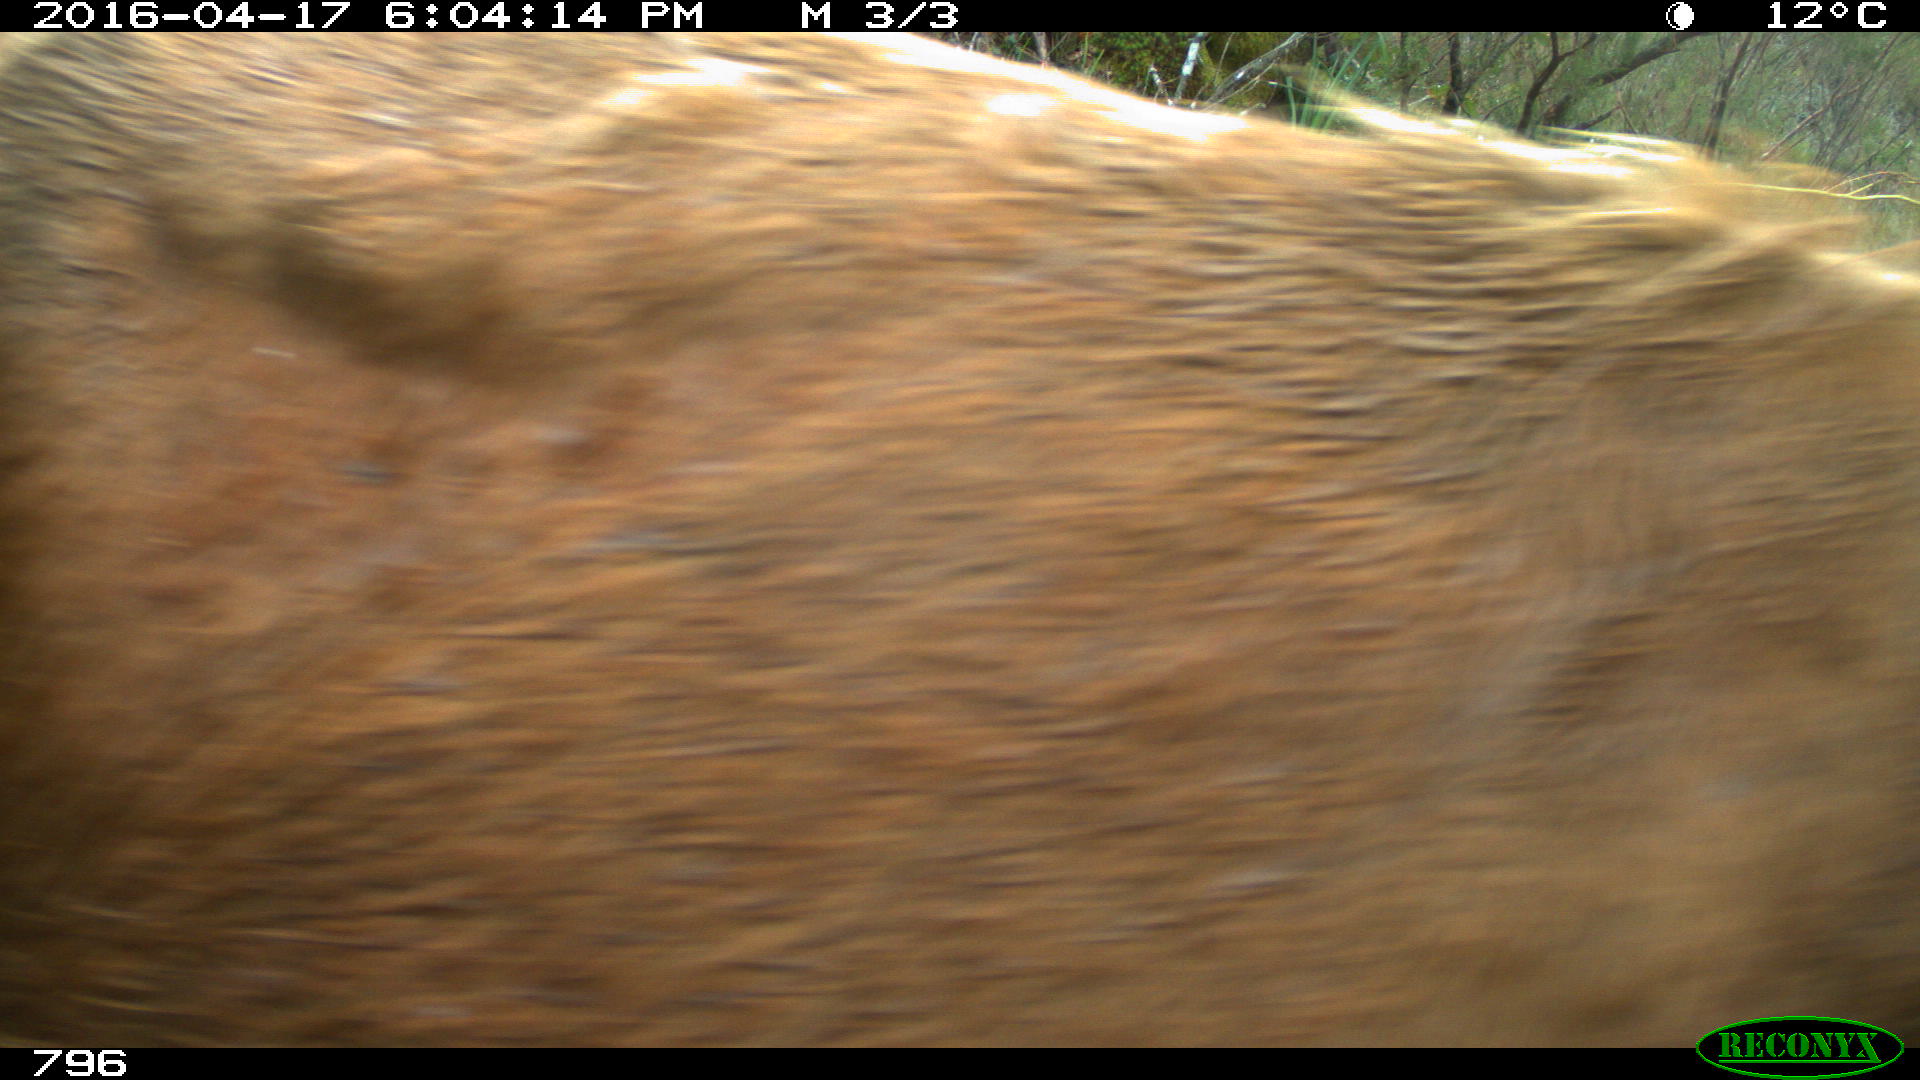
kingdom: Animalia
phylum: Chordata
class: Mammalia
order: Artiodactyla
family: Bovidae
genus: Bos
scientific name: Bos taurus
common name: Domesticated cattle
